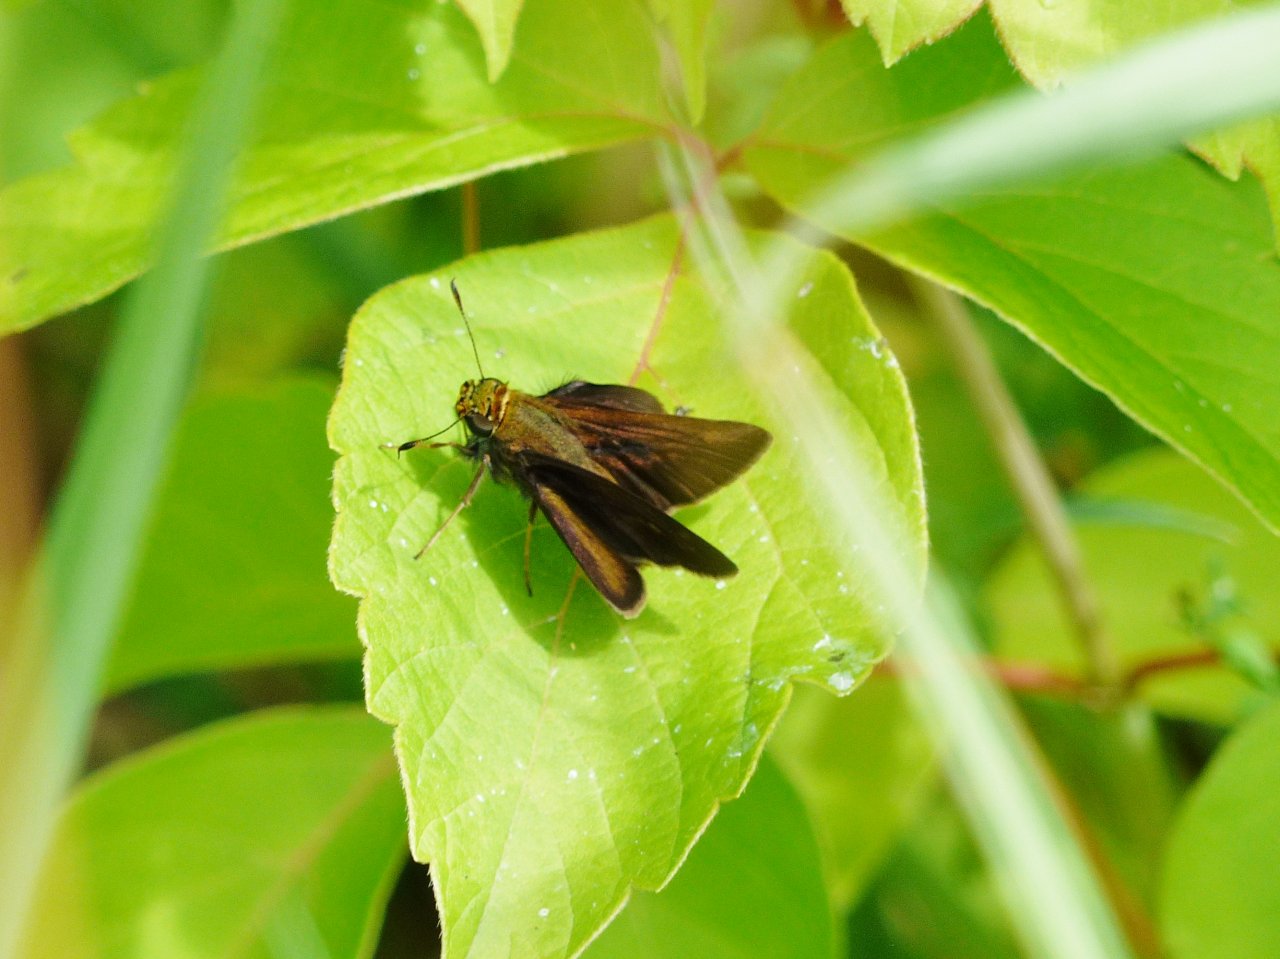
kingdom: Animalia
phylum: Arthropoda
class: Insecta
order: Lepidoptera
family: Hesperiidae
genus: Euphyes
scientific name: Euphyes vestris
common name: Dun Skipper
